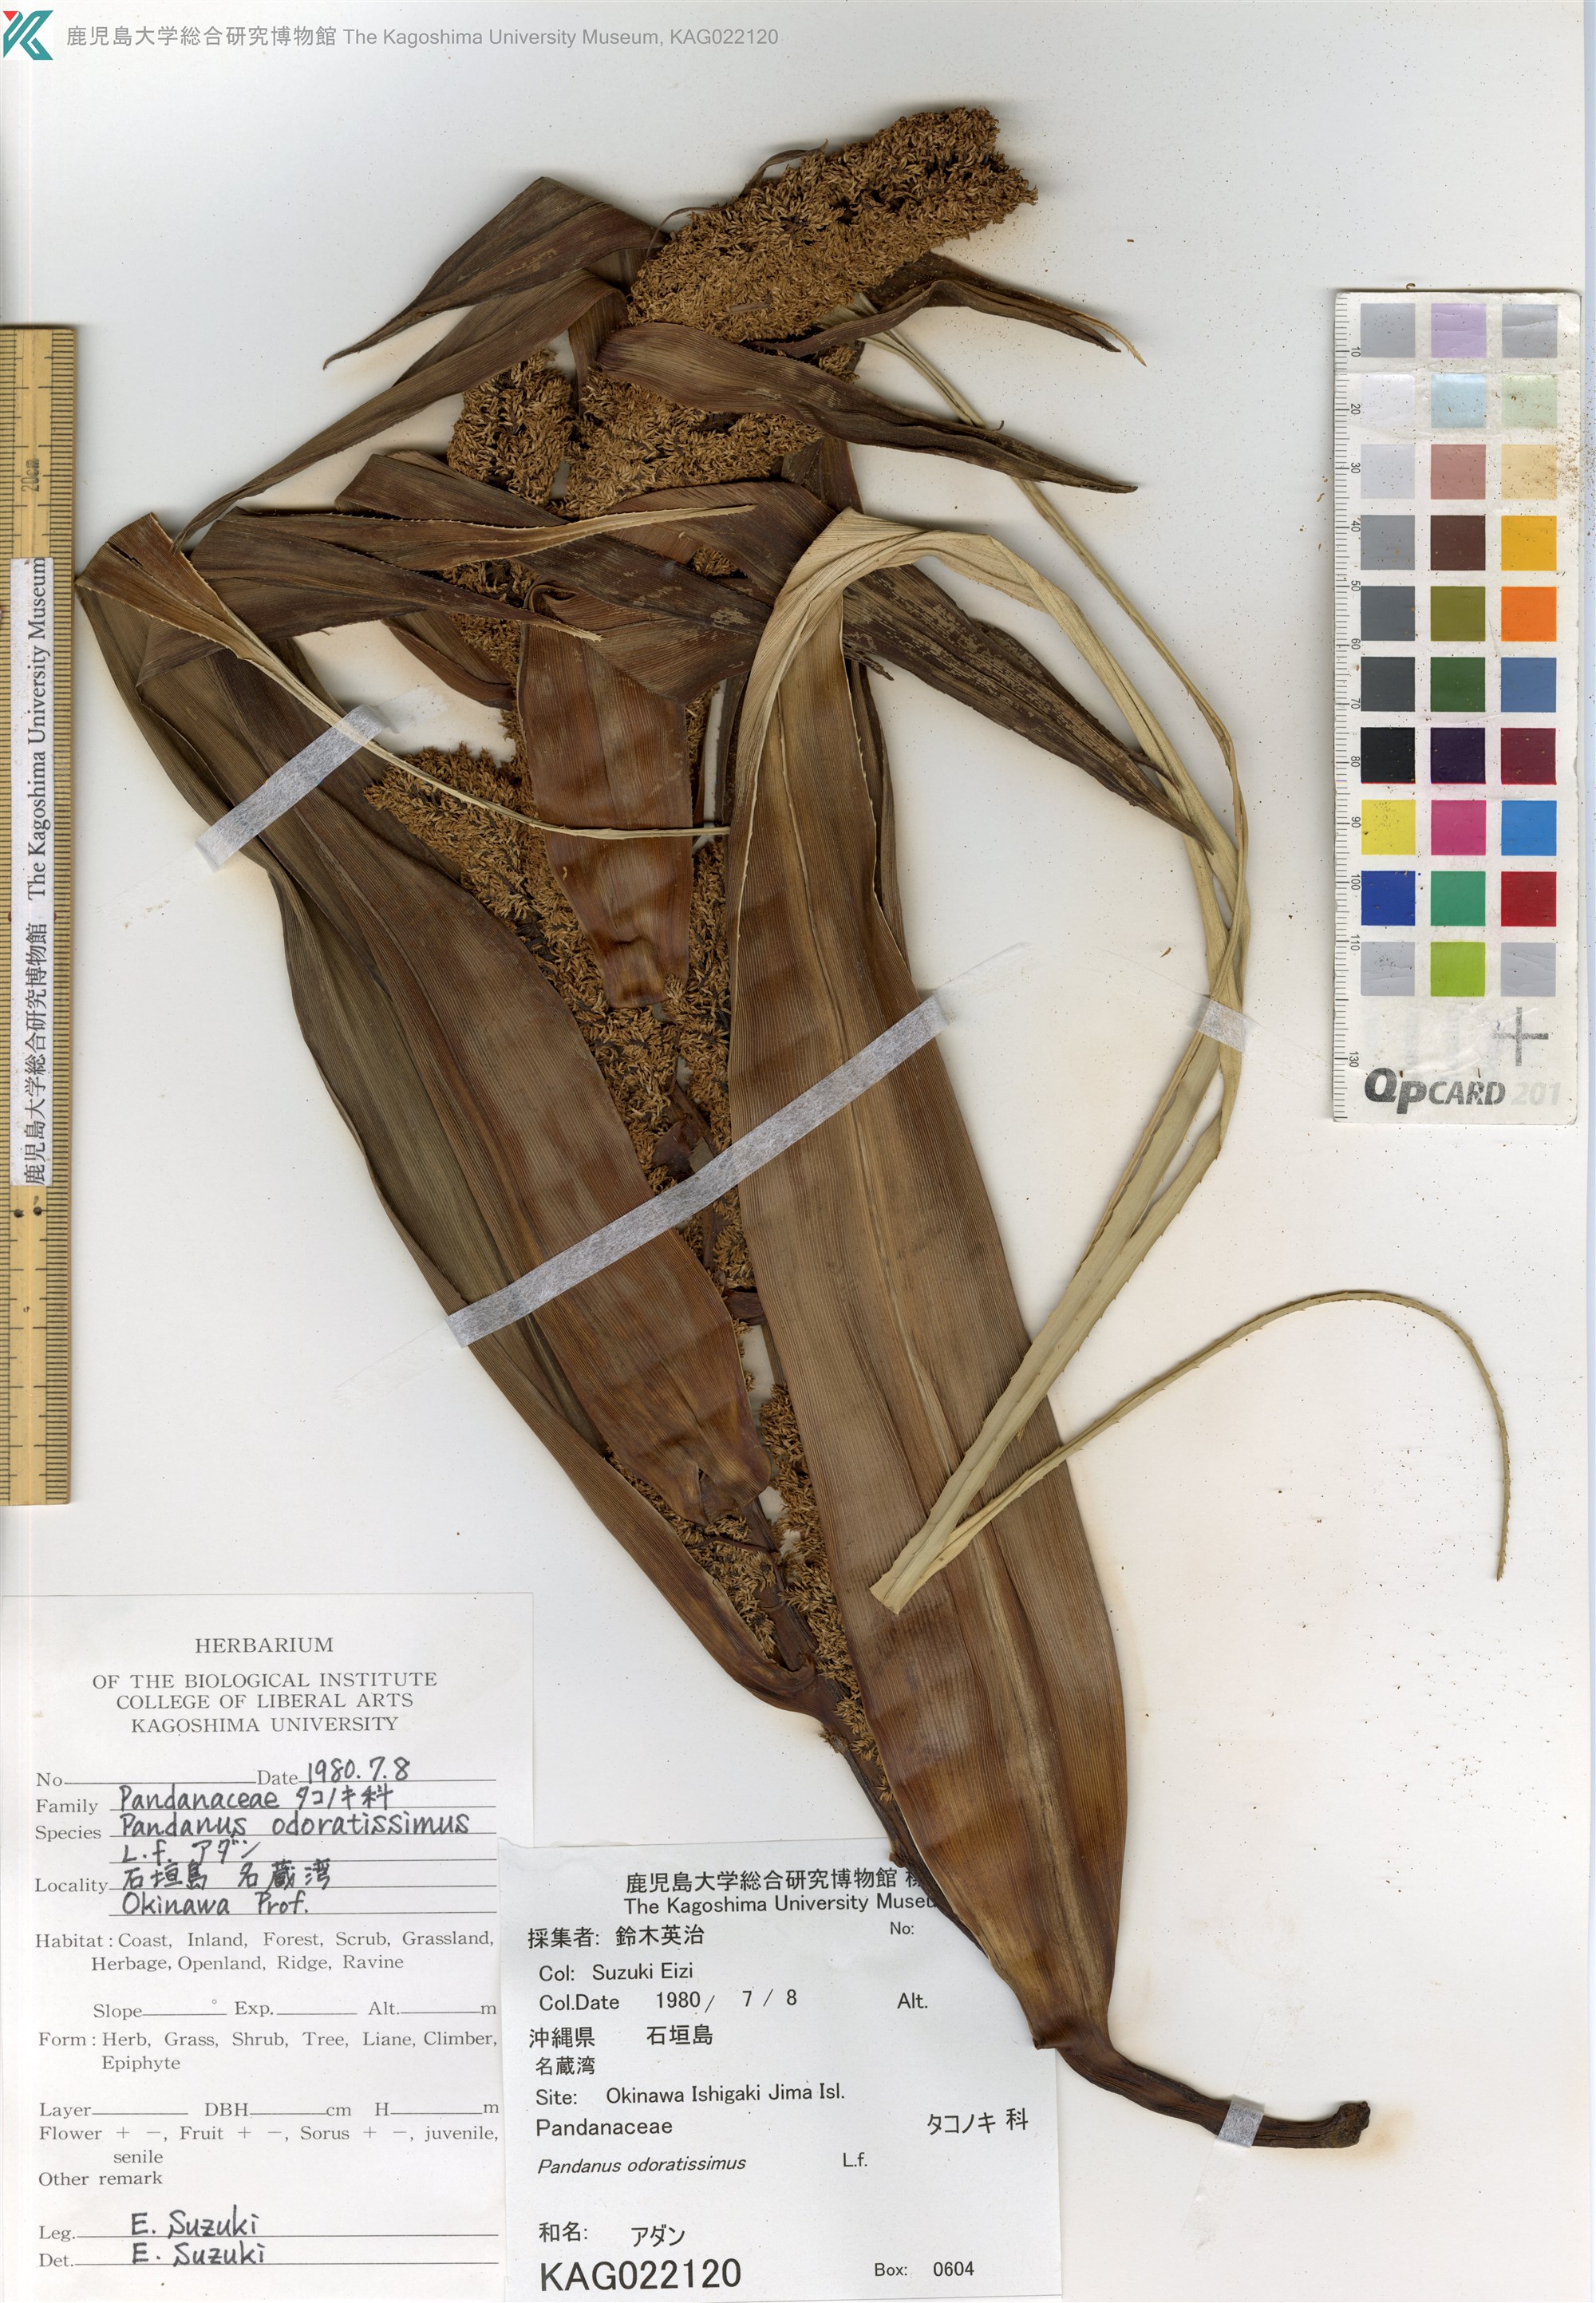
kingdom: Plantae
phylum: Tracheophyta
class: Liliopsida
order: Pandanales
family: Pandanaceae
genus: Pandanus
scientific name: Pandanus odorifer
